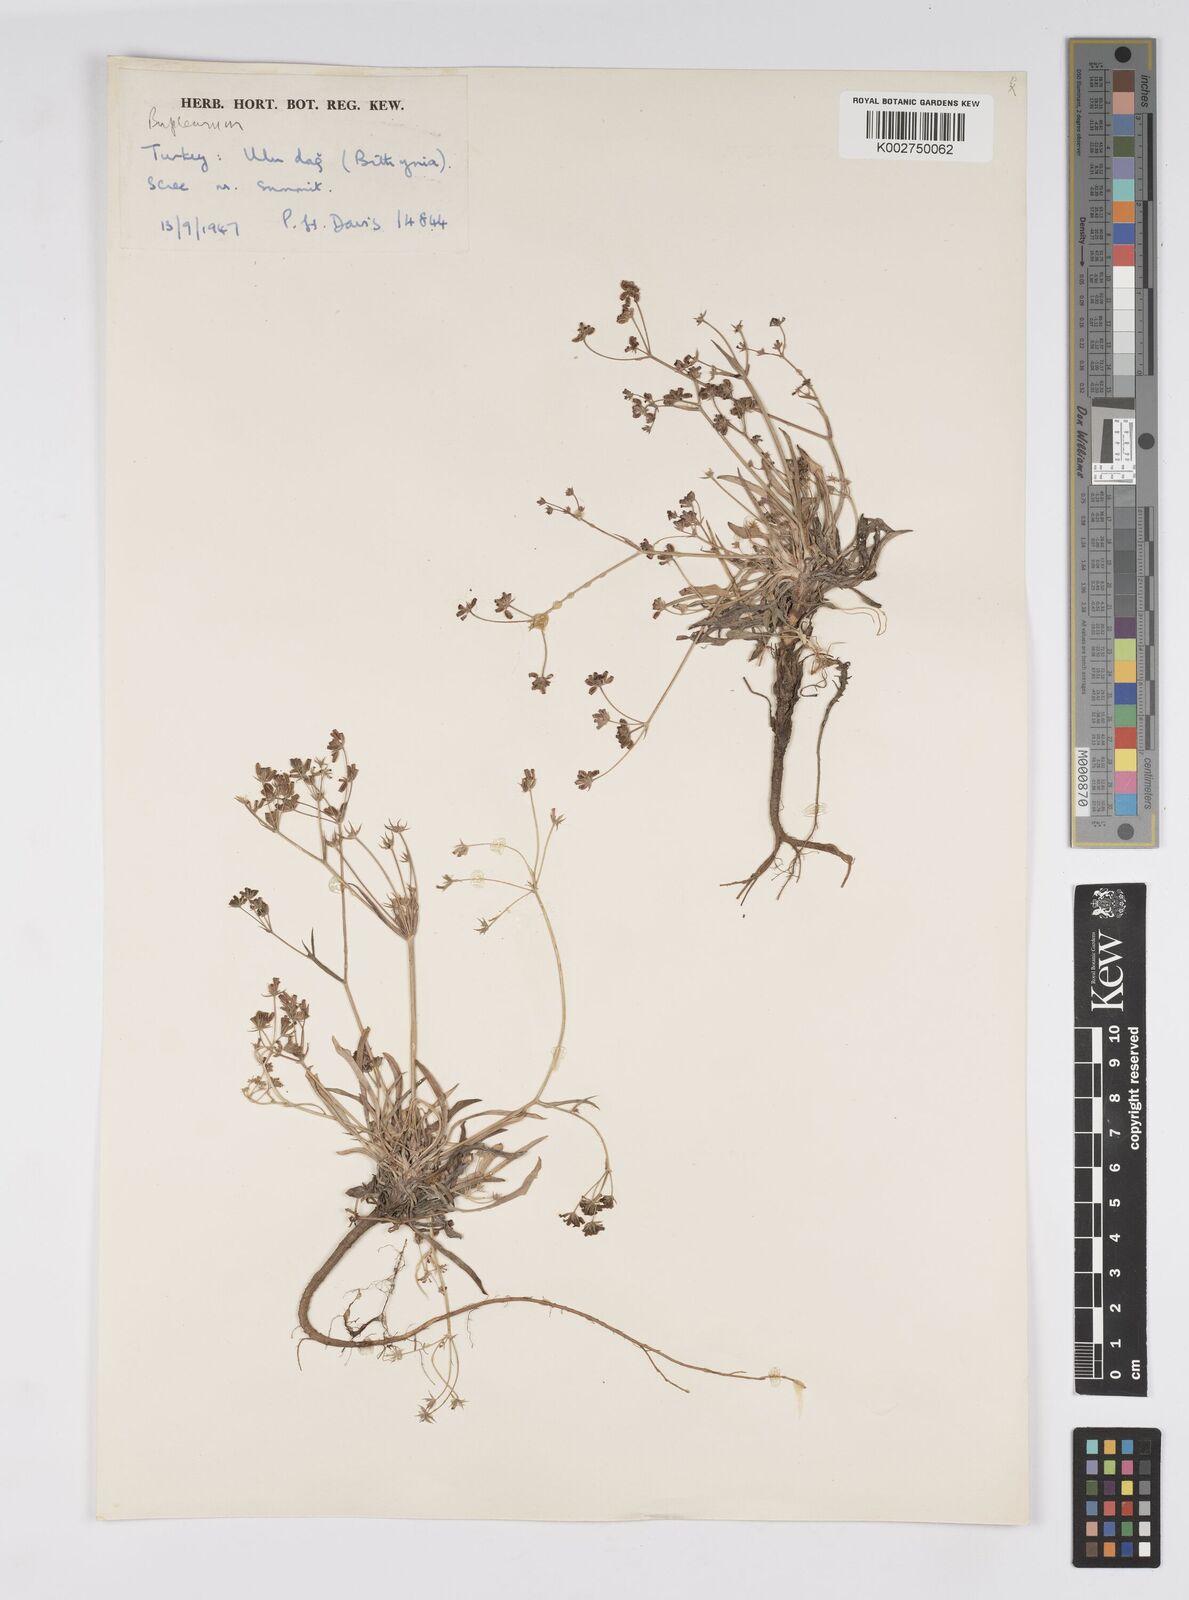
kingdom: Plantae
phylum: Tracheophyta
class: Magnoliopsida
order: Apiales
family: Apiaceae
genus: Bupleurum
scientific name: Bupleurum
